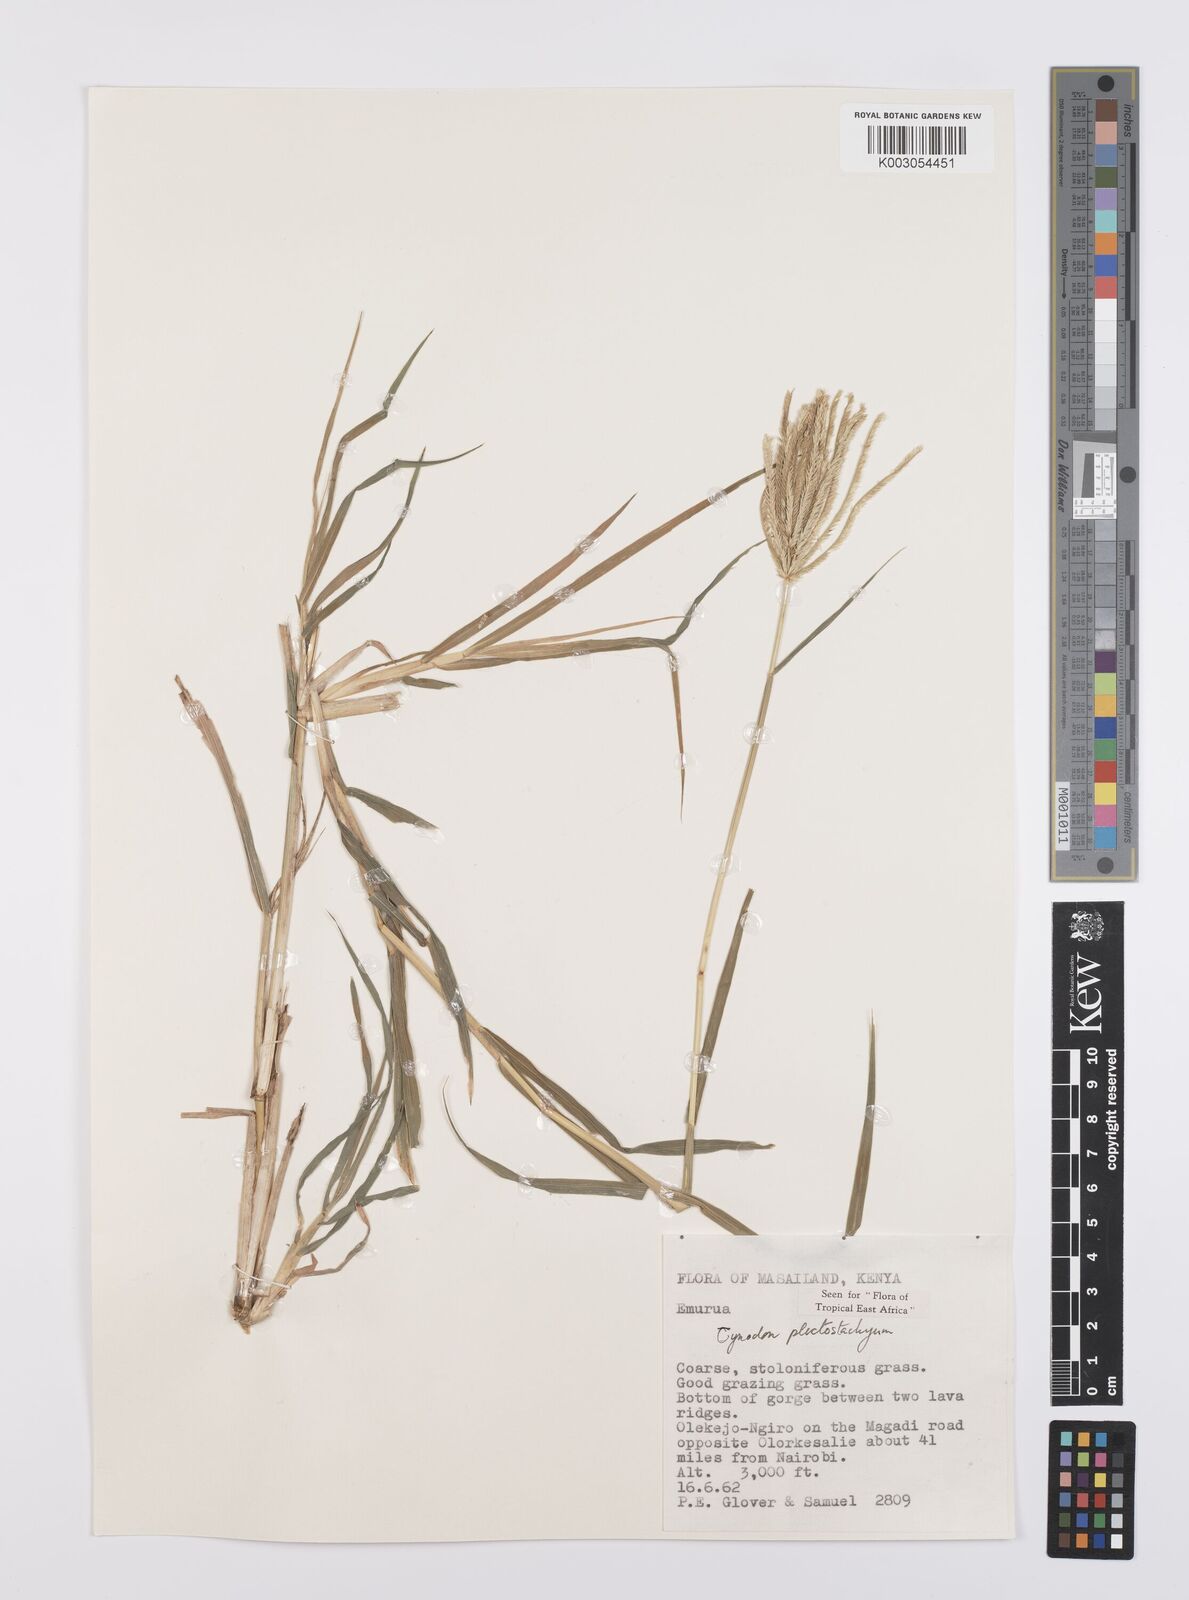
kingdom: Plantae
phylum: Tracheophyta
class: Liliopsida
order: Poales
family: Poaceae
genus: Cynodon
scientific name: Cynodon plectostachyus
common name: Stargrass
